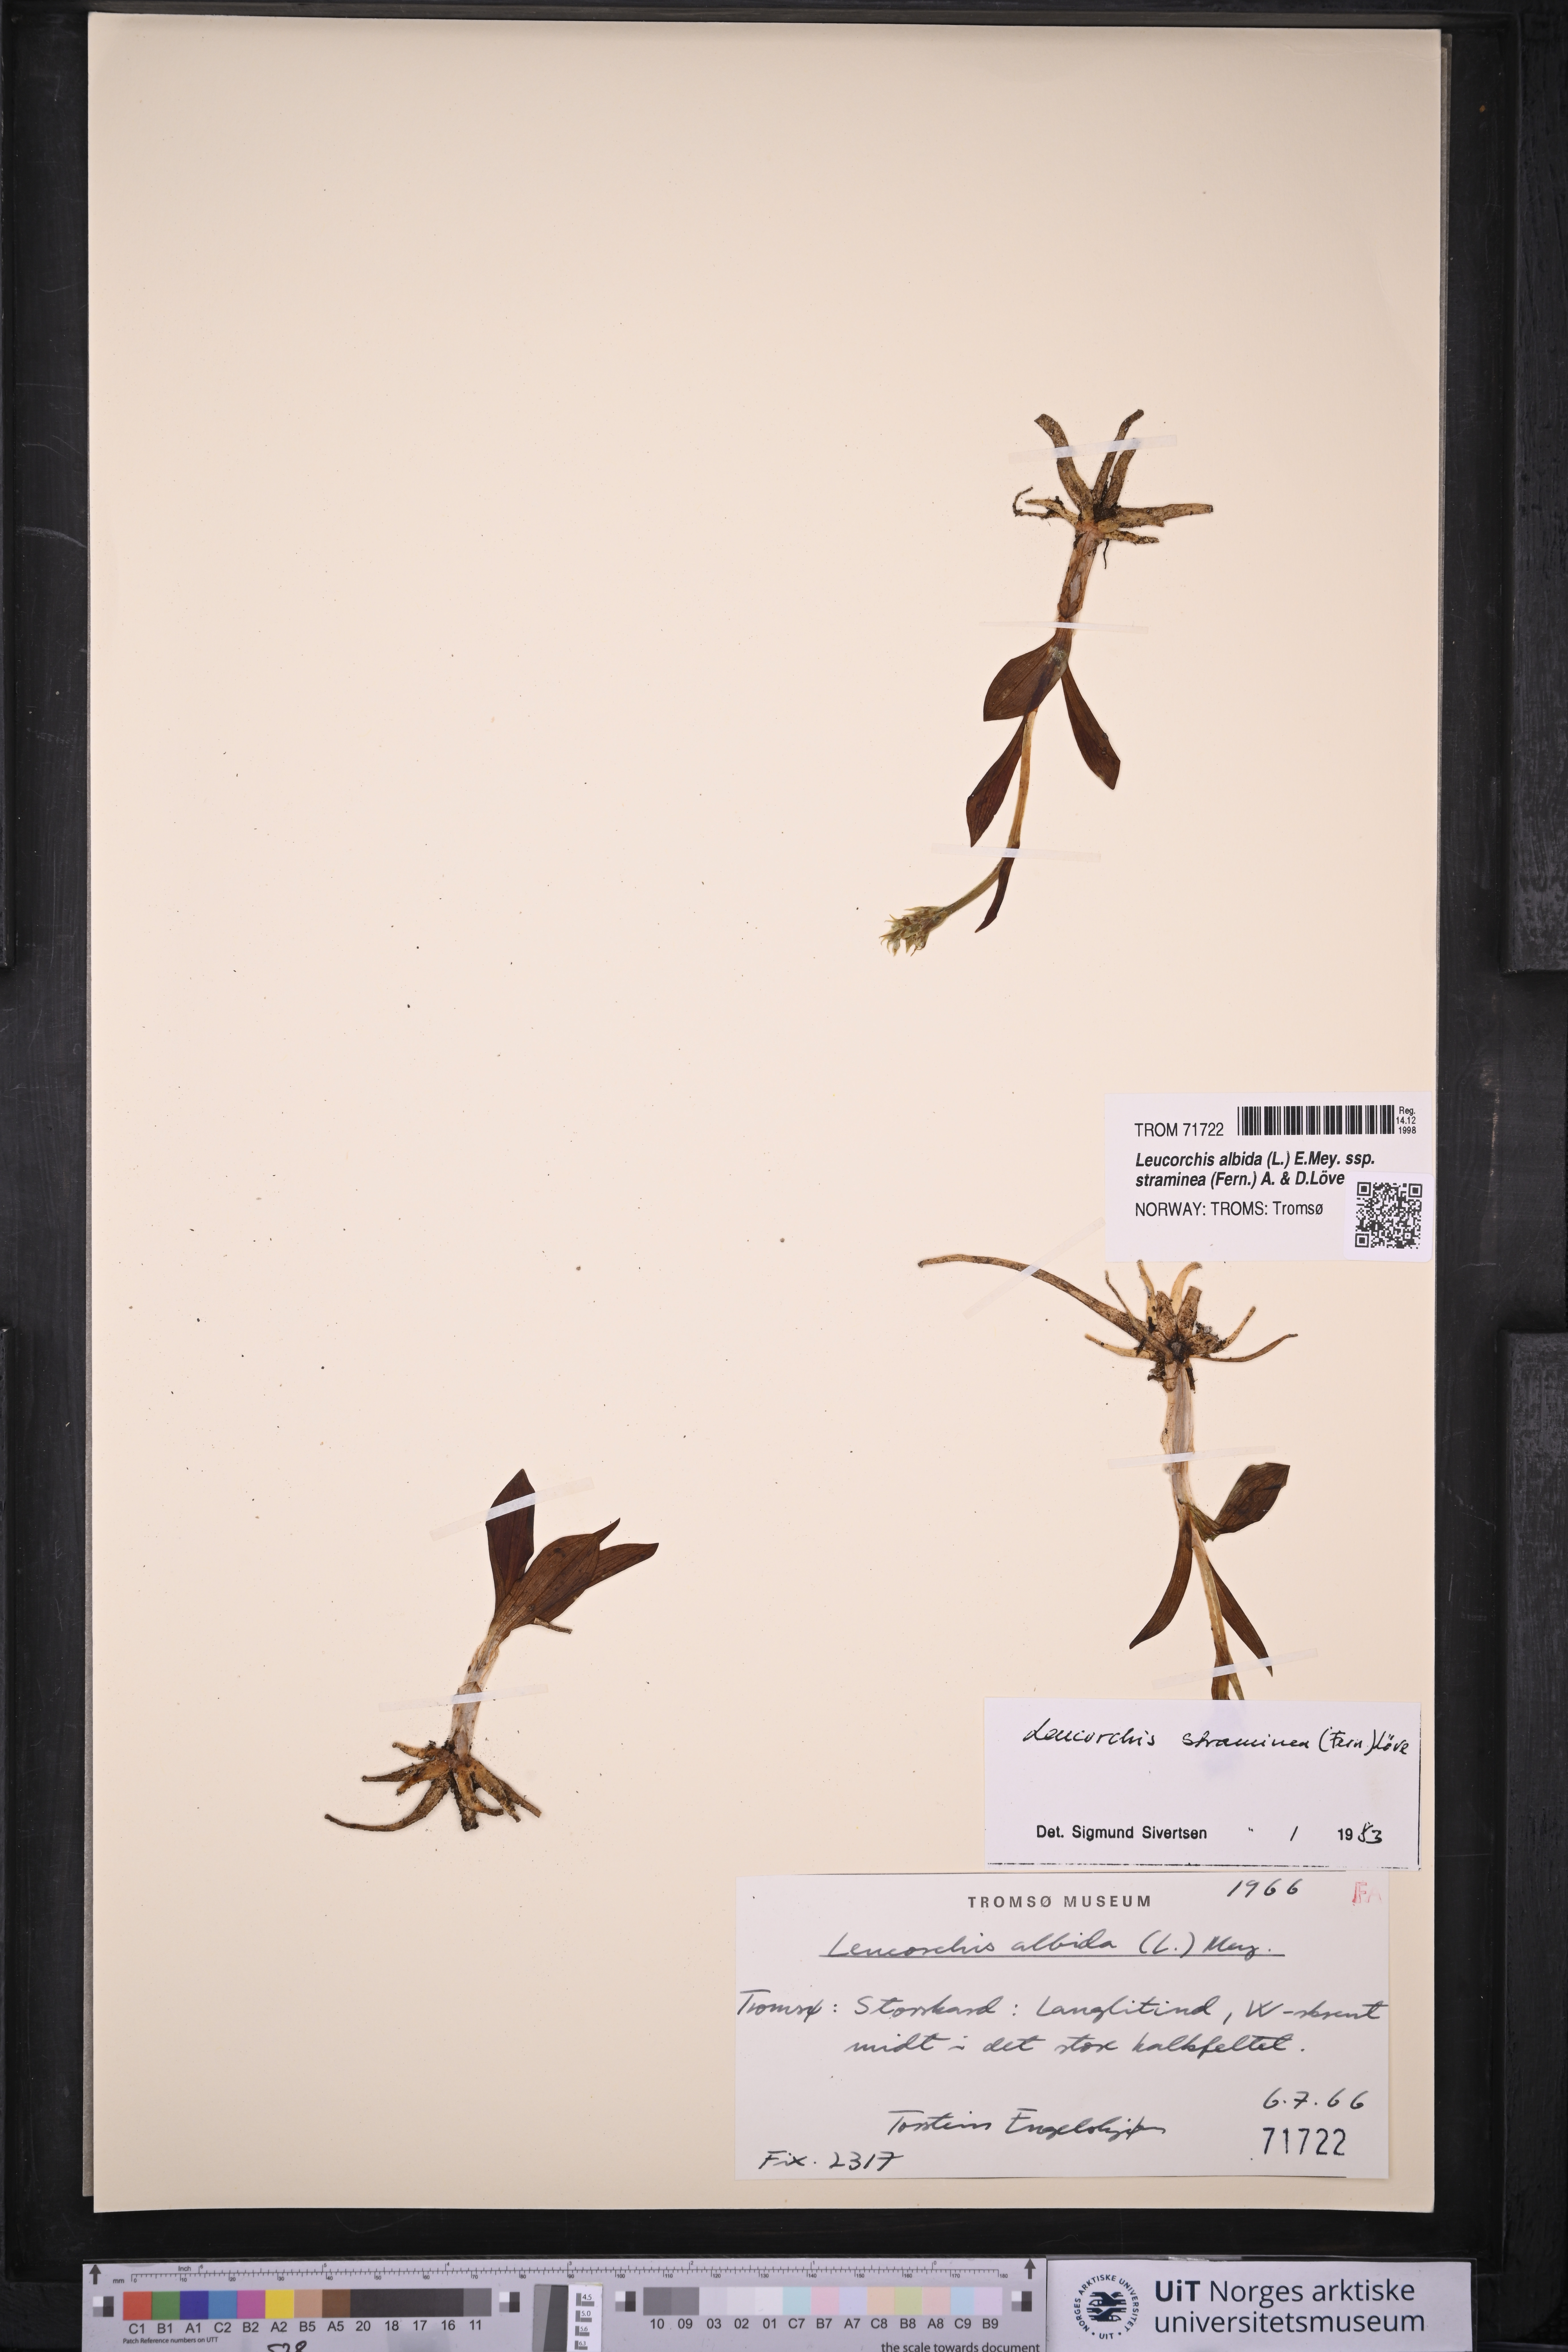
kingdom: Plantae
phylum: Tracheophyta
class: Liliopsida
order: Asparagales
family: Orchidaceae
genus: Pseudorchis
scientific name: Pseudorchis straminea
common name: Vanilla-scented bog orchid
